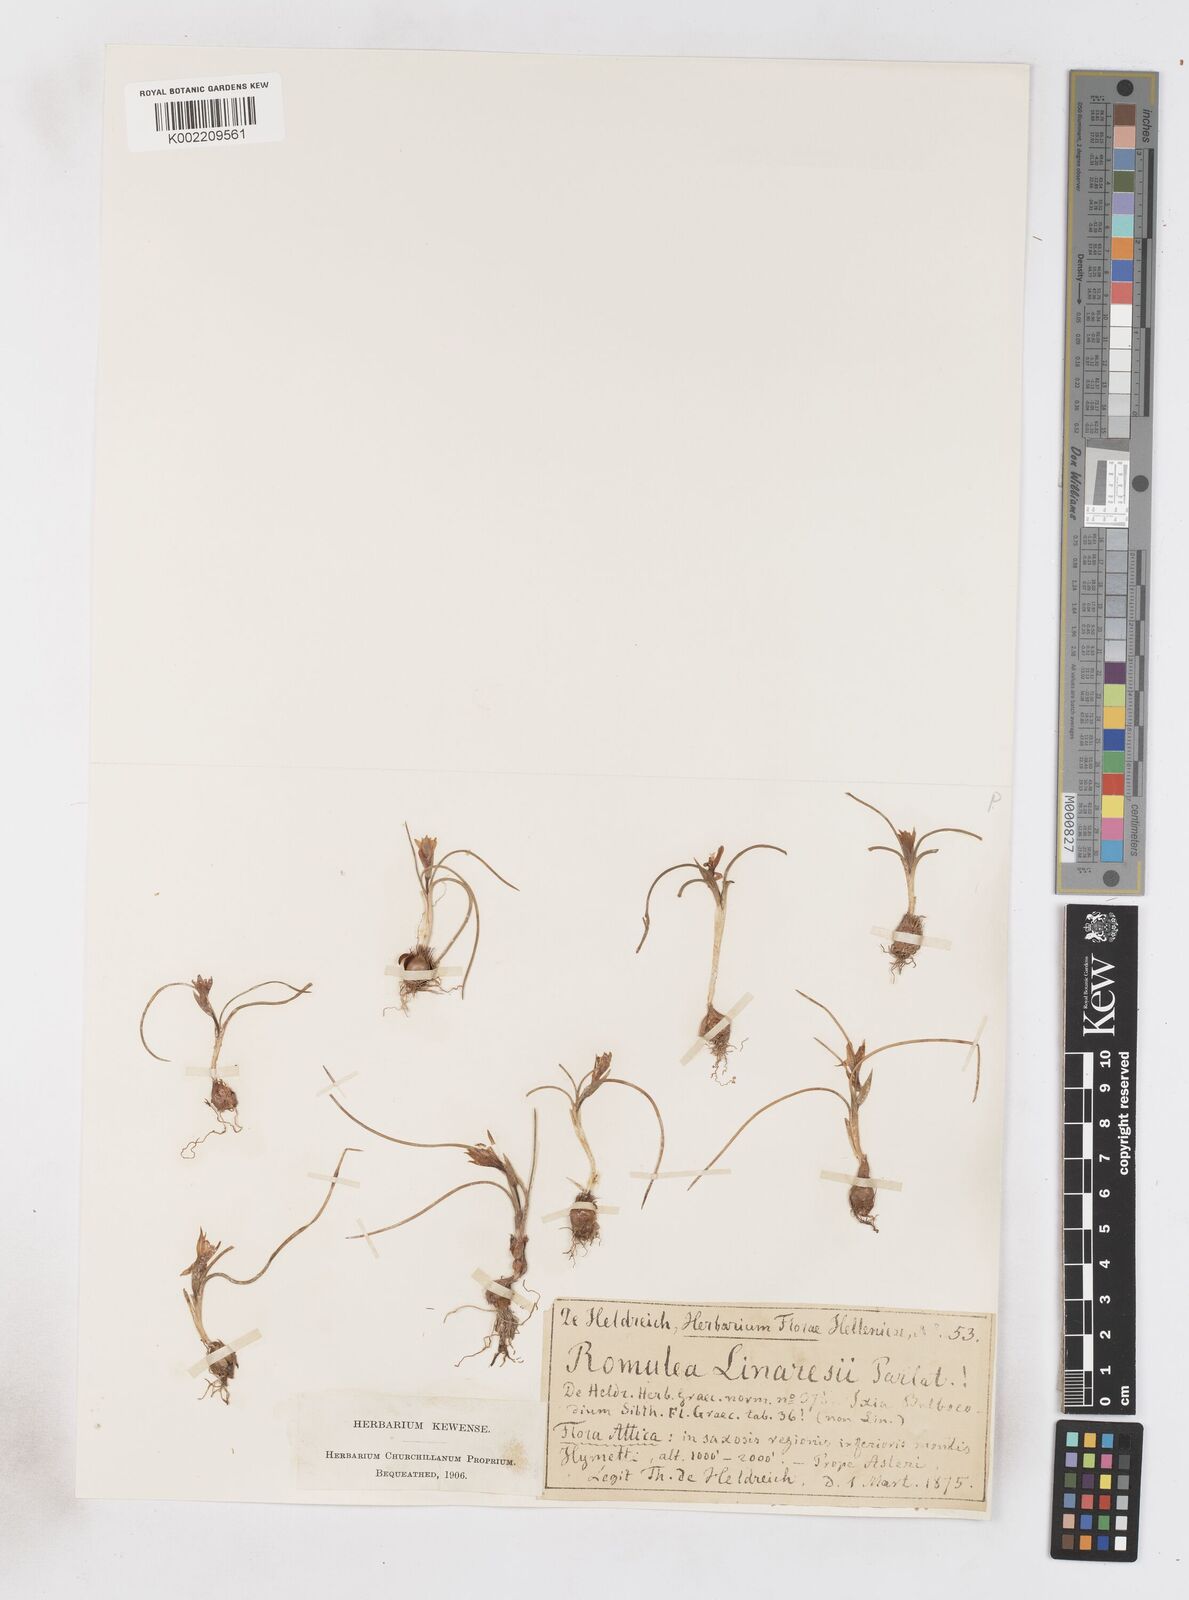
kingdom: Plantae
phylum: Tracheophyta
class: Liliopsida
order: Asparagales
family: Iridaceae
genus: Romulea
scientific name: Romulea linaresii
